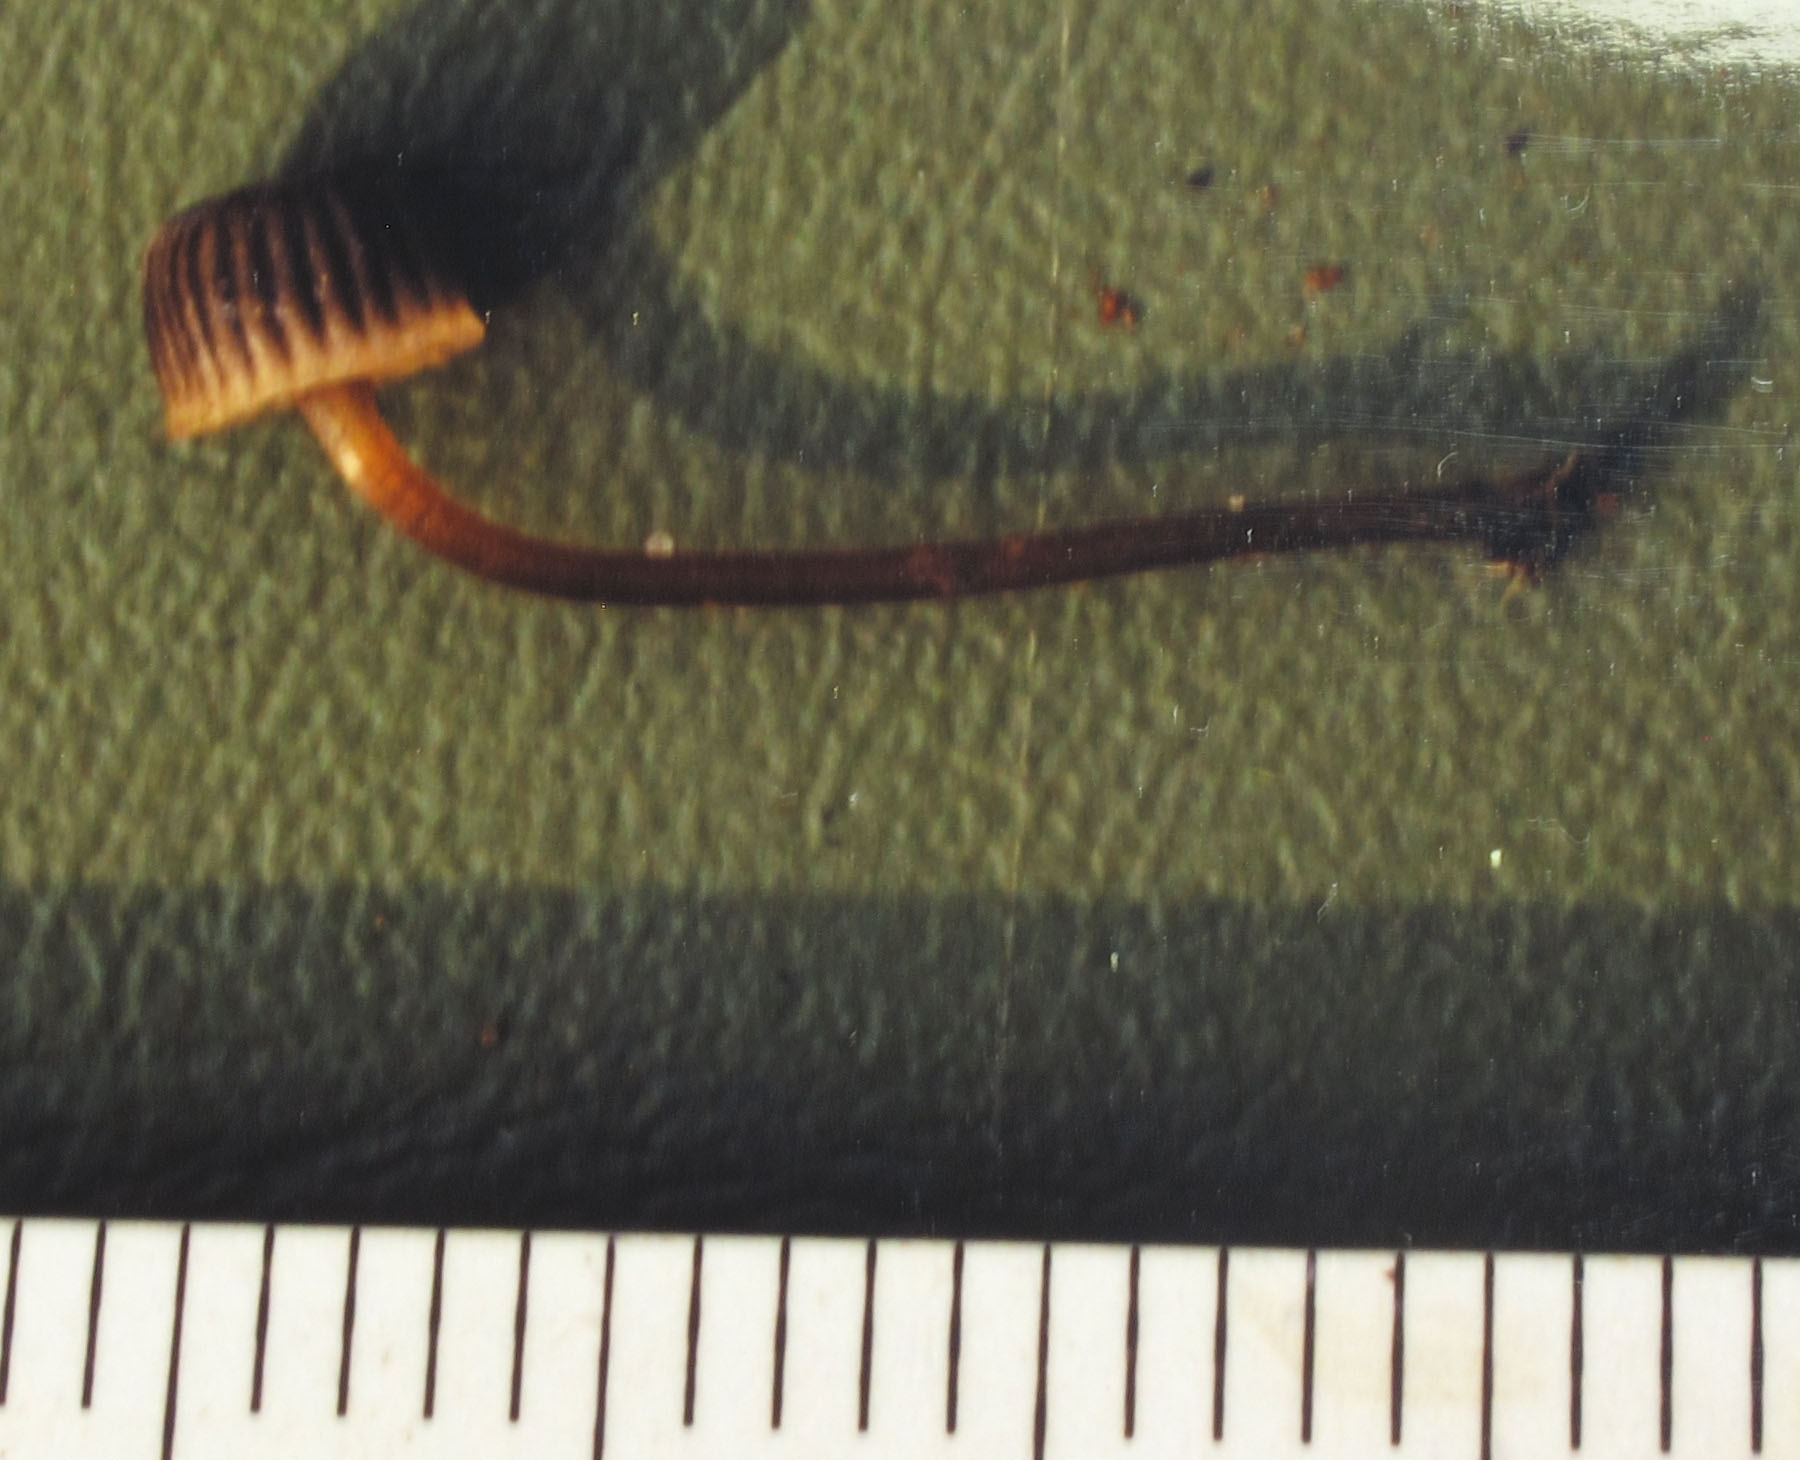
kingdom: Fungi
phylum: Basidiomycota
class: Agaricomycetes
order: Agaricales
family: Mycenaceae
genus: Mycena
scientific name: Mycena picta
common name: kantet huesvamp
